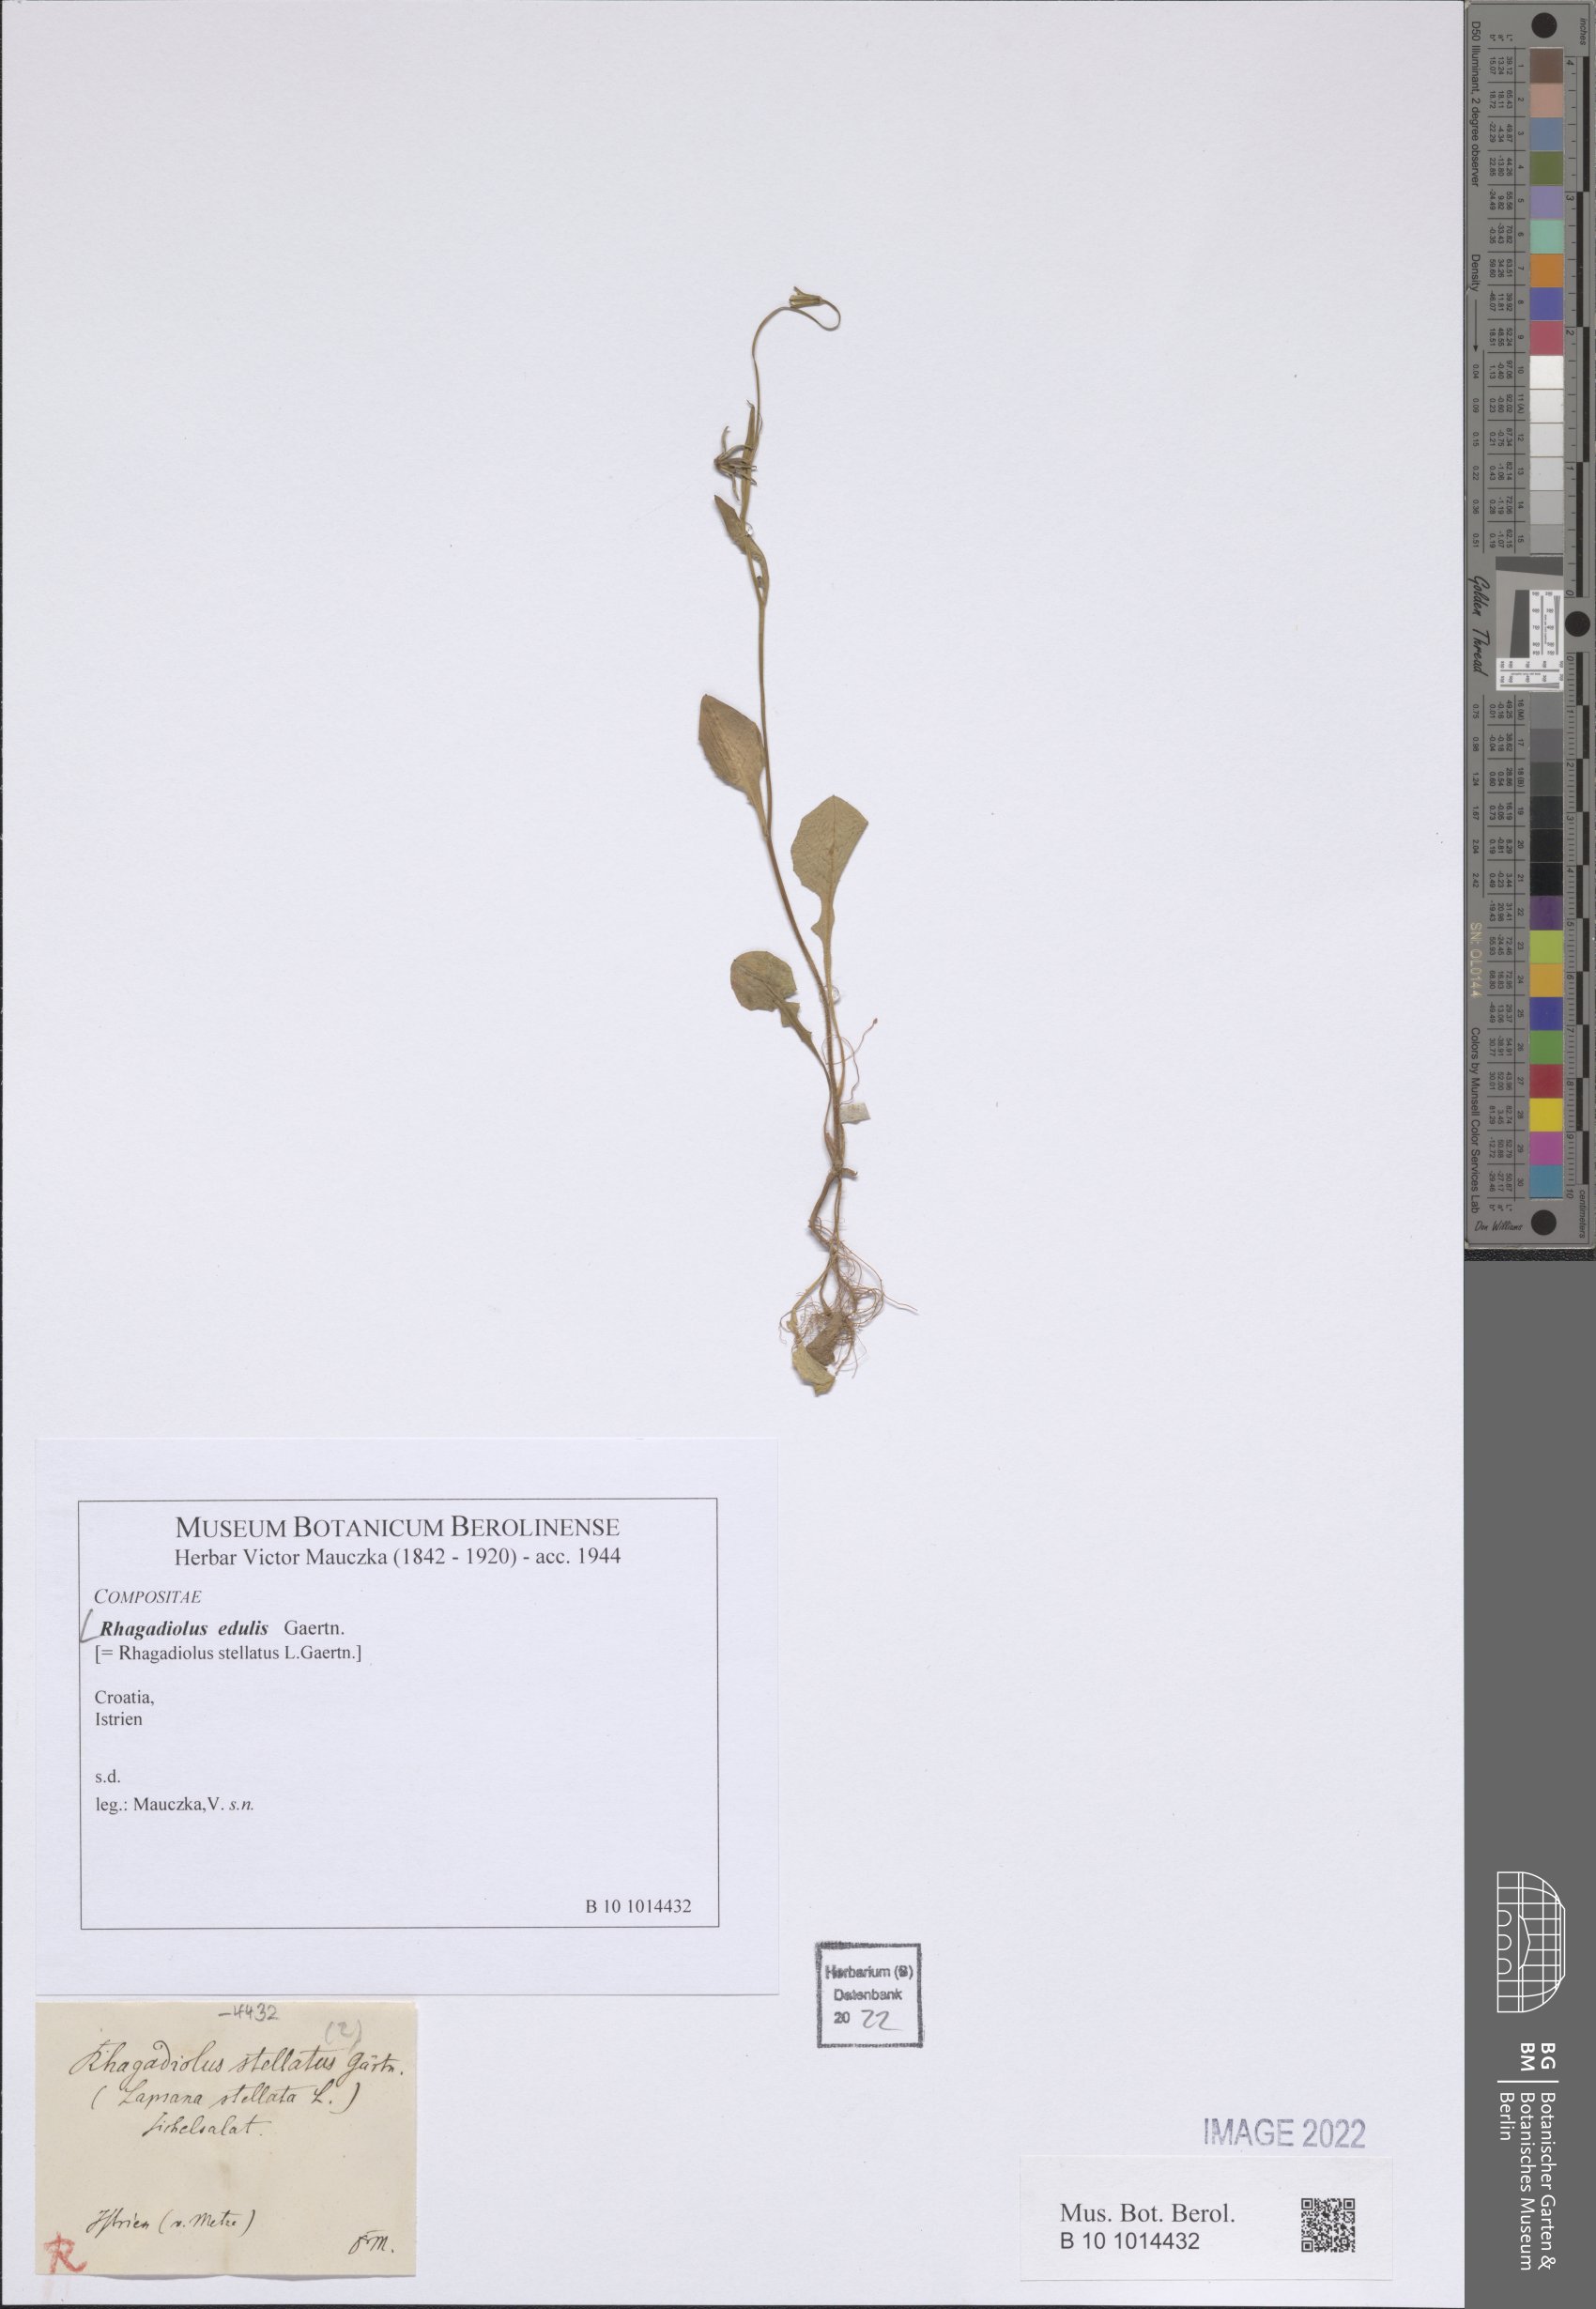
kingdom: Plantae
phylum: Tracheophyta
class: Magnoliopsida
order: Asterales
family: Asteraceae
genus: Rhagadiolus
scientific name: Rhagadiolus edulis
